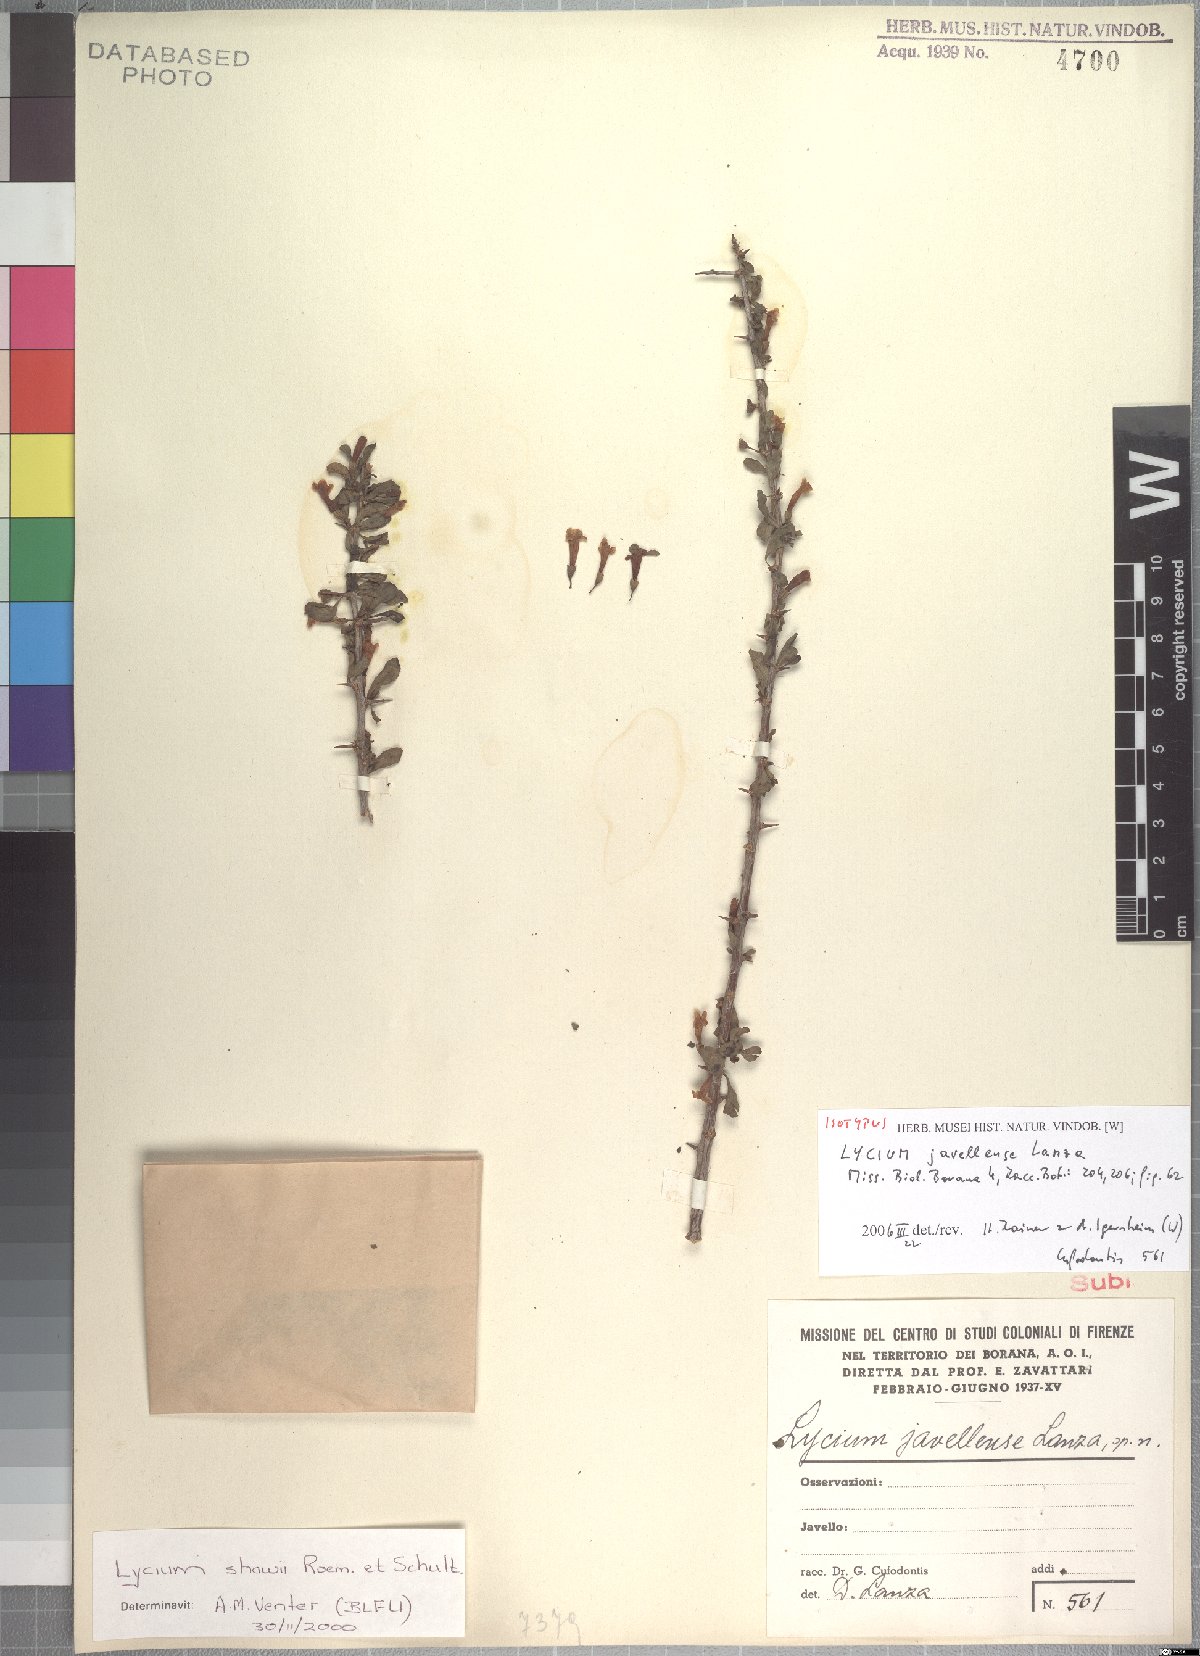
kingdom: Plantae
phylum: Tracheophyta
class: Magnoliopsida
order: Solanales
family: Solanaceae
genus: Lycium
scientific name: Lycium shawii
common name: Boxthorn
